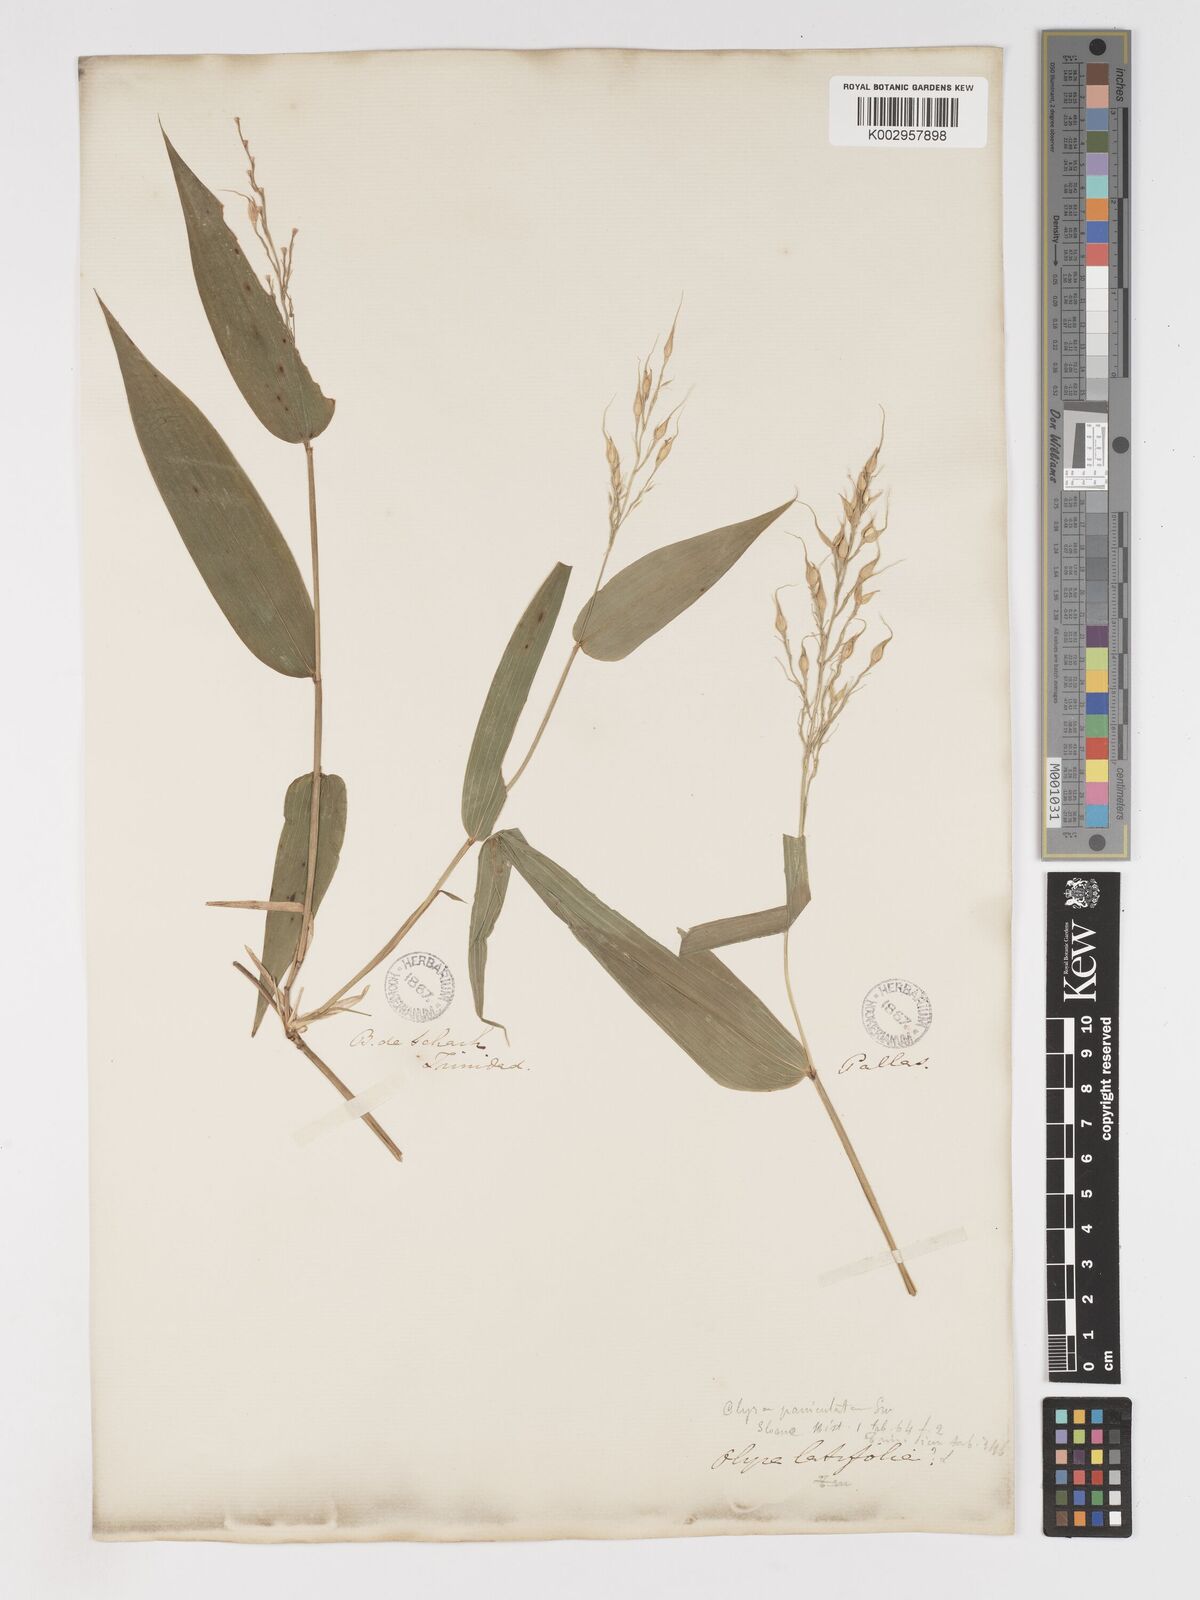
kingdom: Plantae
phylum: Tracheophyta
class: Liliopsida
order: Poales
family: Poaceae
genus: Olyra
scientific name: Olyra latifolia
